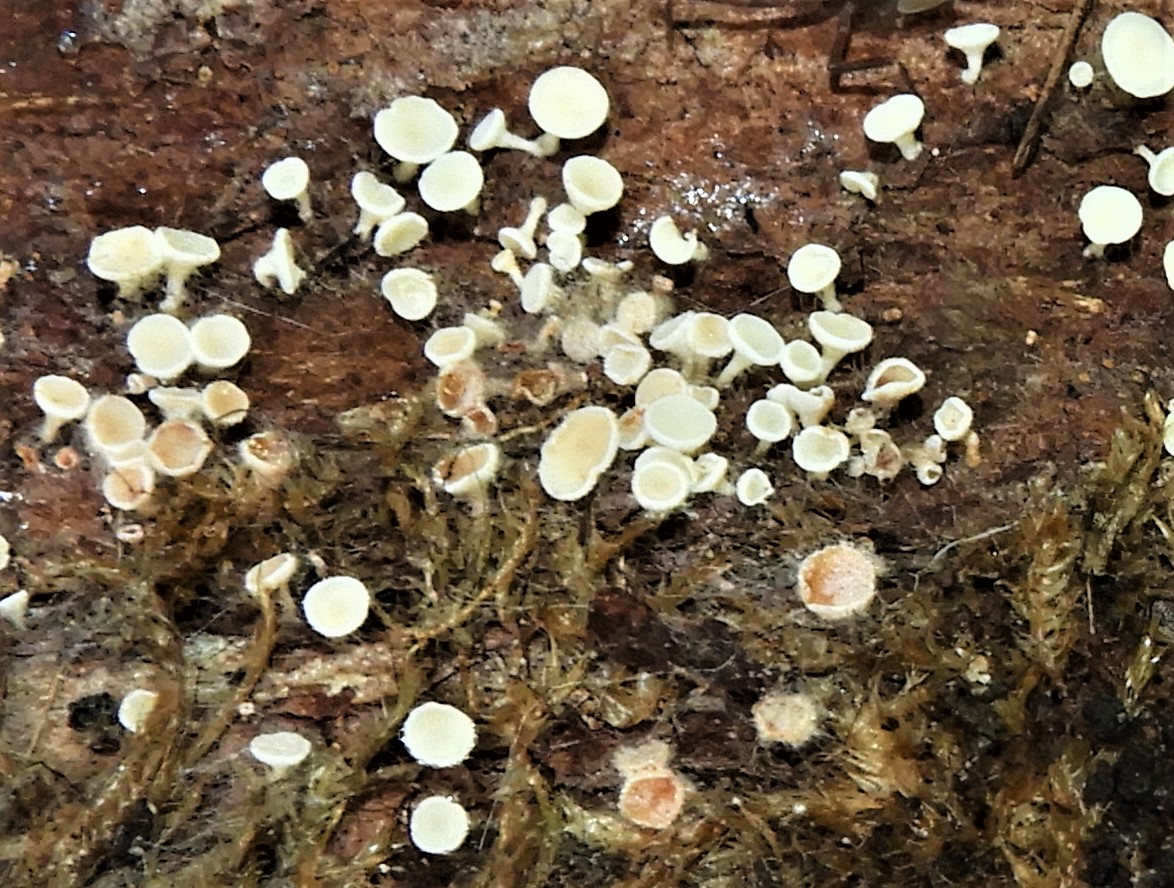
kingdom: Fungi
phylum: Ascomycota
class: Leotiomycetes
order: Helotiales
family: Lachnaceae
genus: Lachnum
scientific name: Lachnum
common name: frynseskive
